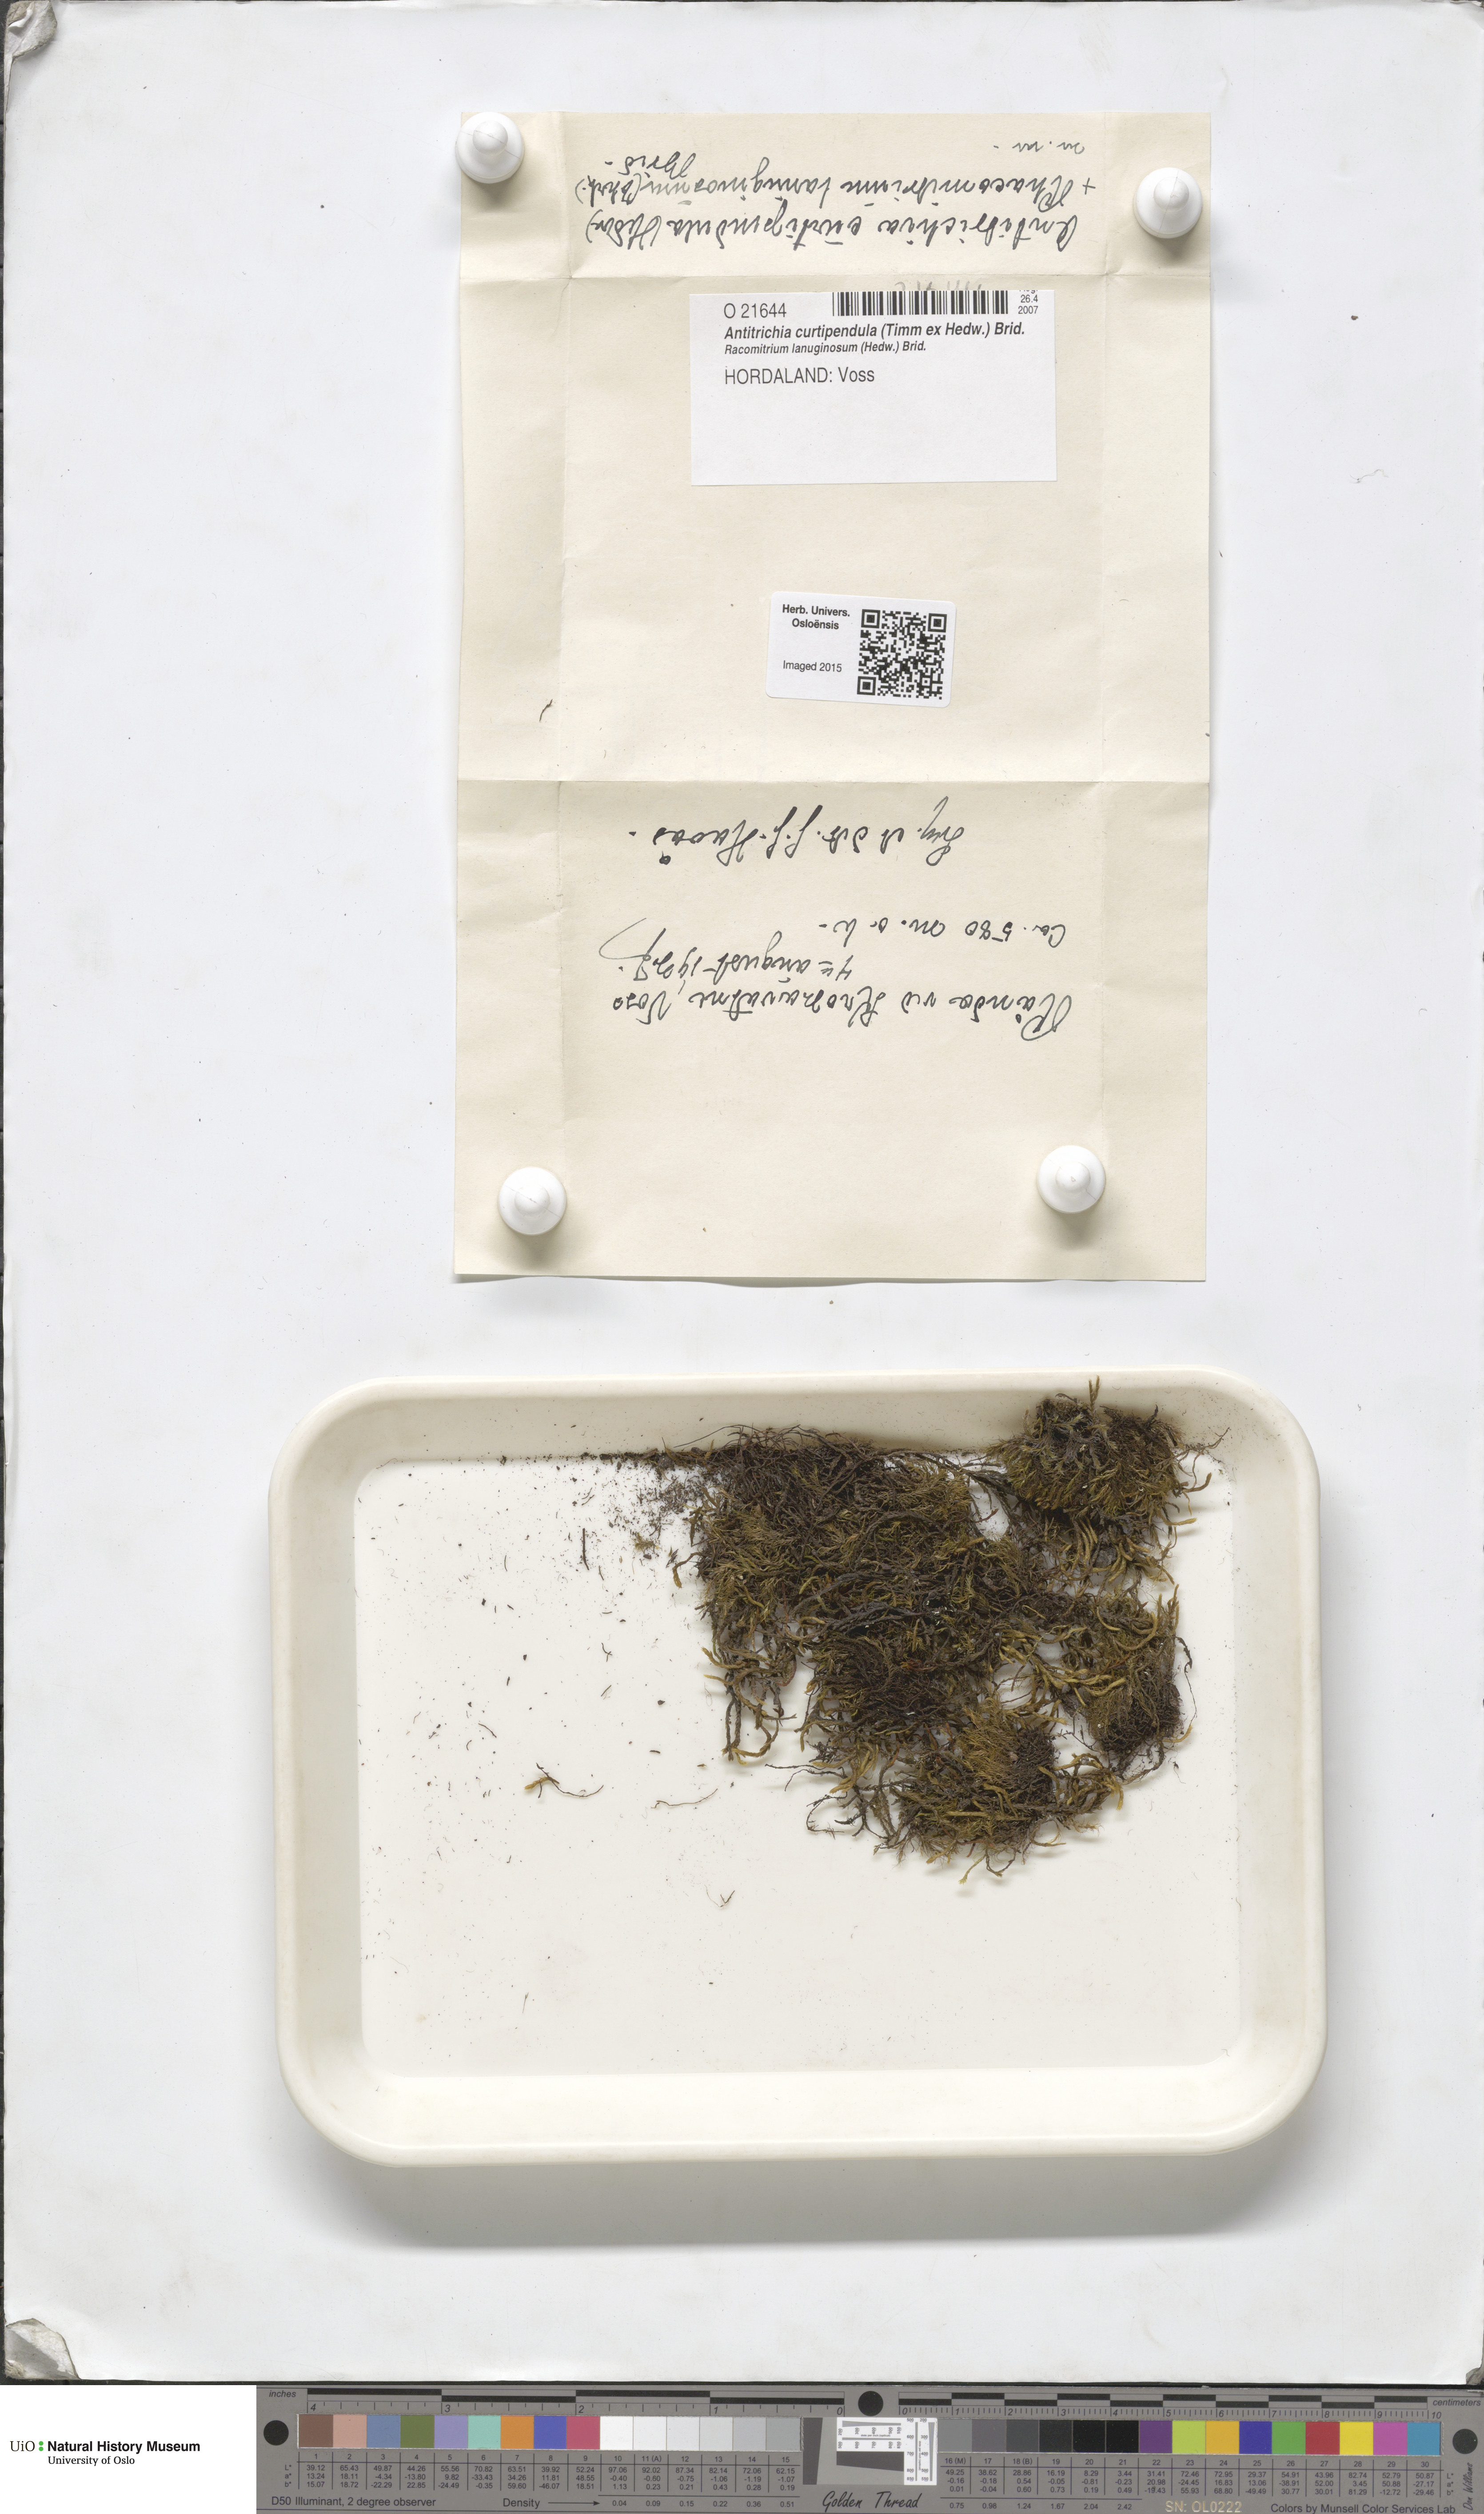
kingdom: Plantae
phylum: Bryophyta
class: Bryopsida
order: Hypnales
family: Antitrichiaceae
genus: Antitrichia
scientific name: Antitrichia curtipendula
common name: Pendulous wing-moss
